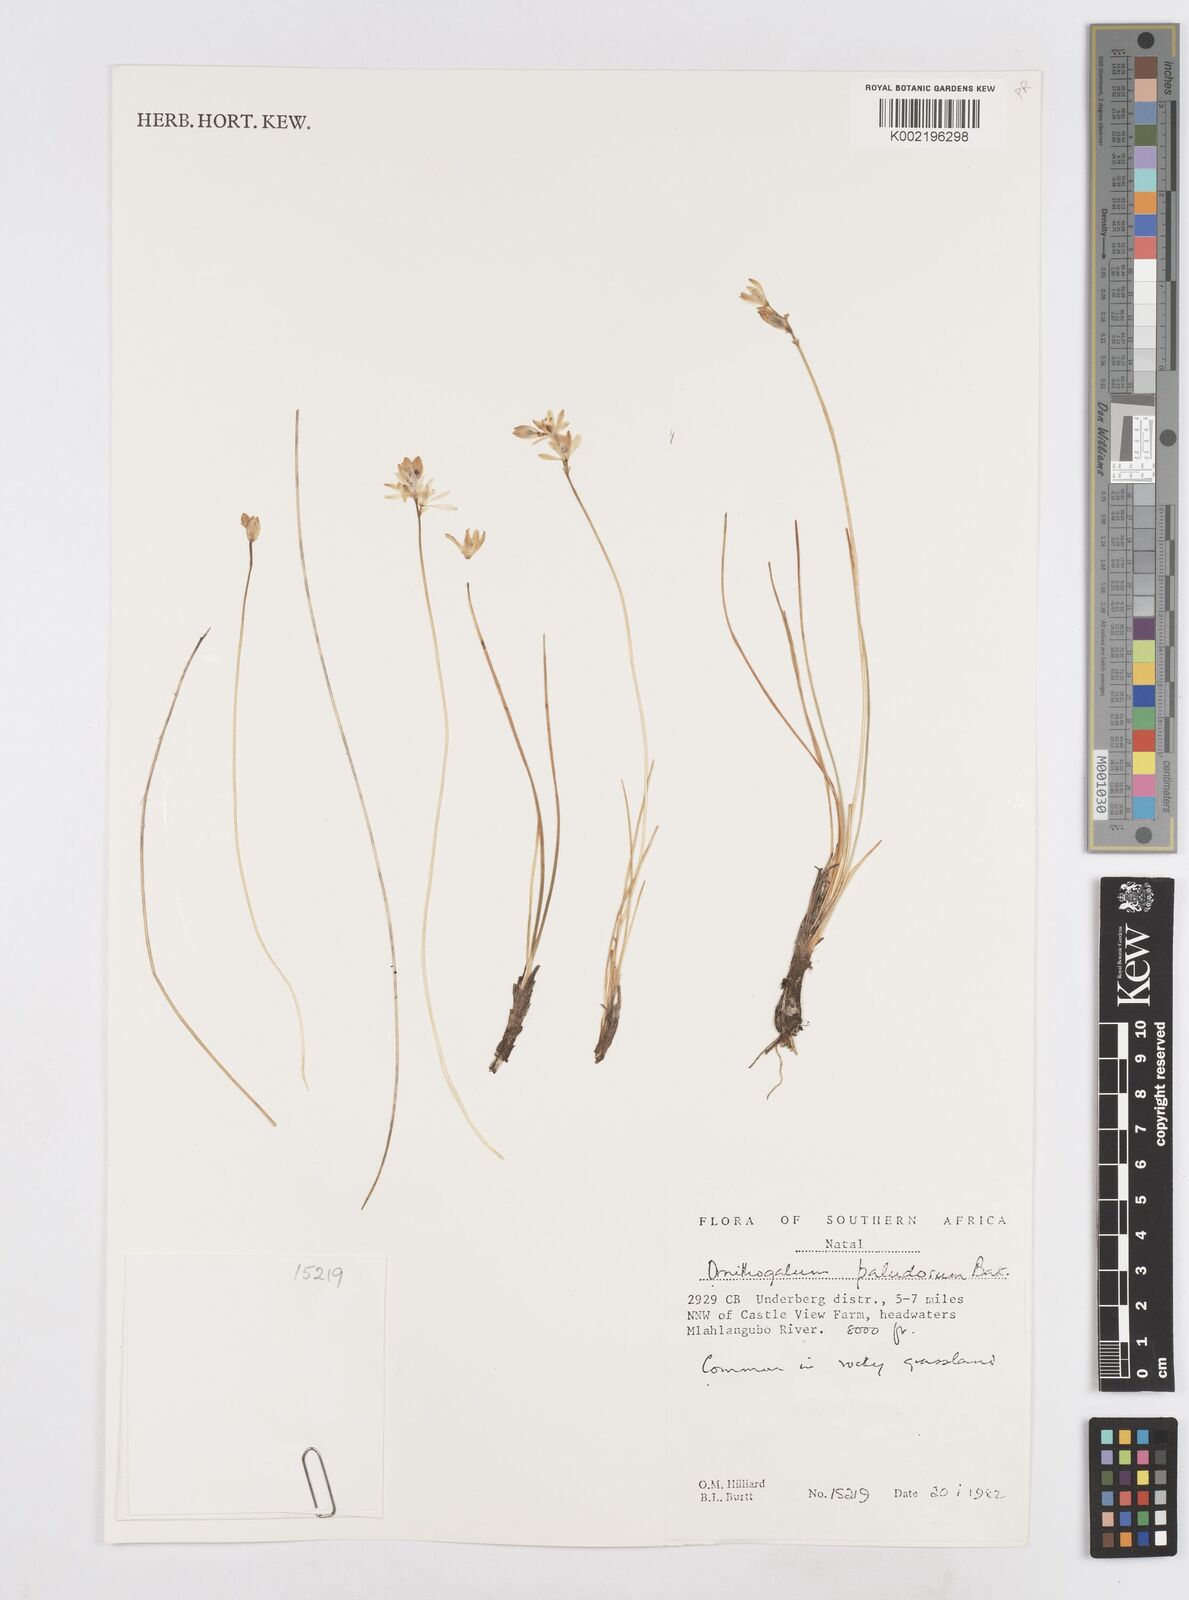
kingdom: Plantae
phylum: Tracheophyta
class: Liliopsida
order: Asparagales
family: Asparagaceae
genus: Ornithogalum
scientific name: Ornithogalum paludosum
